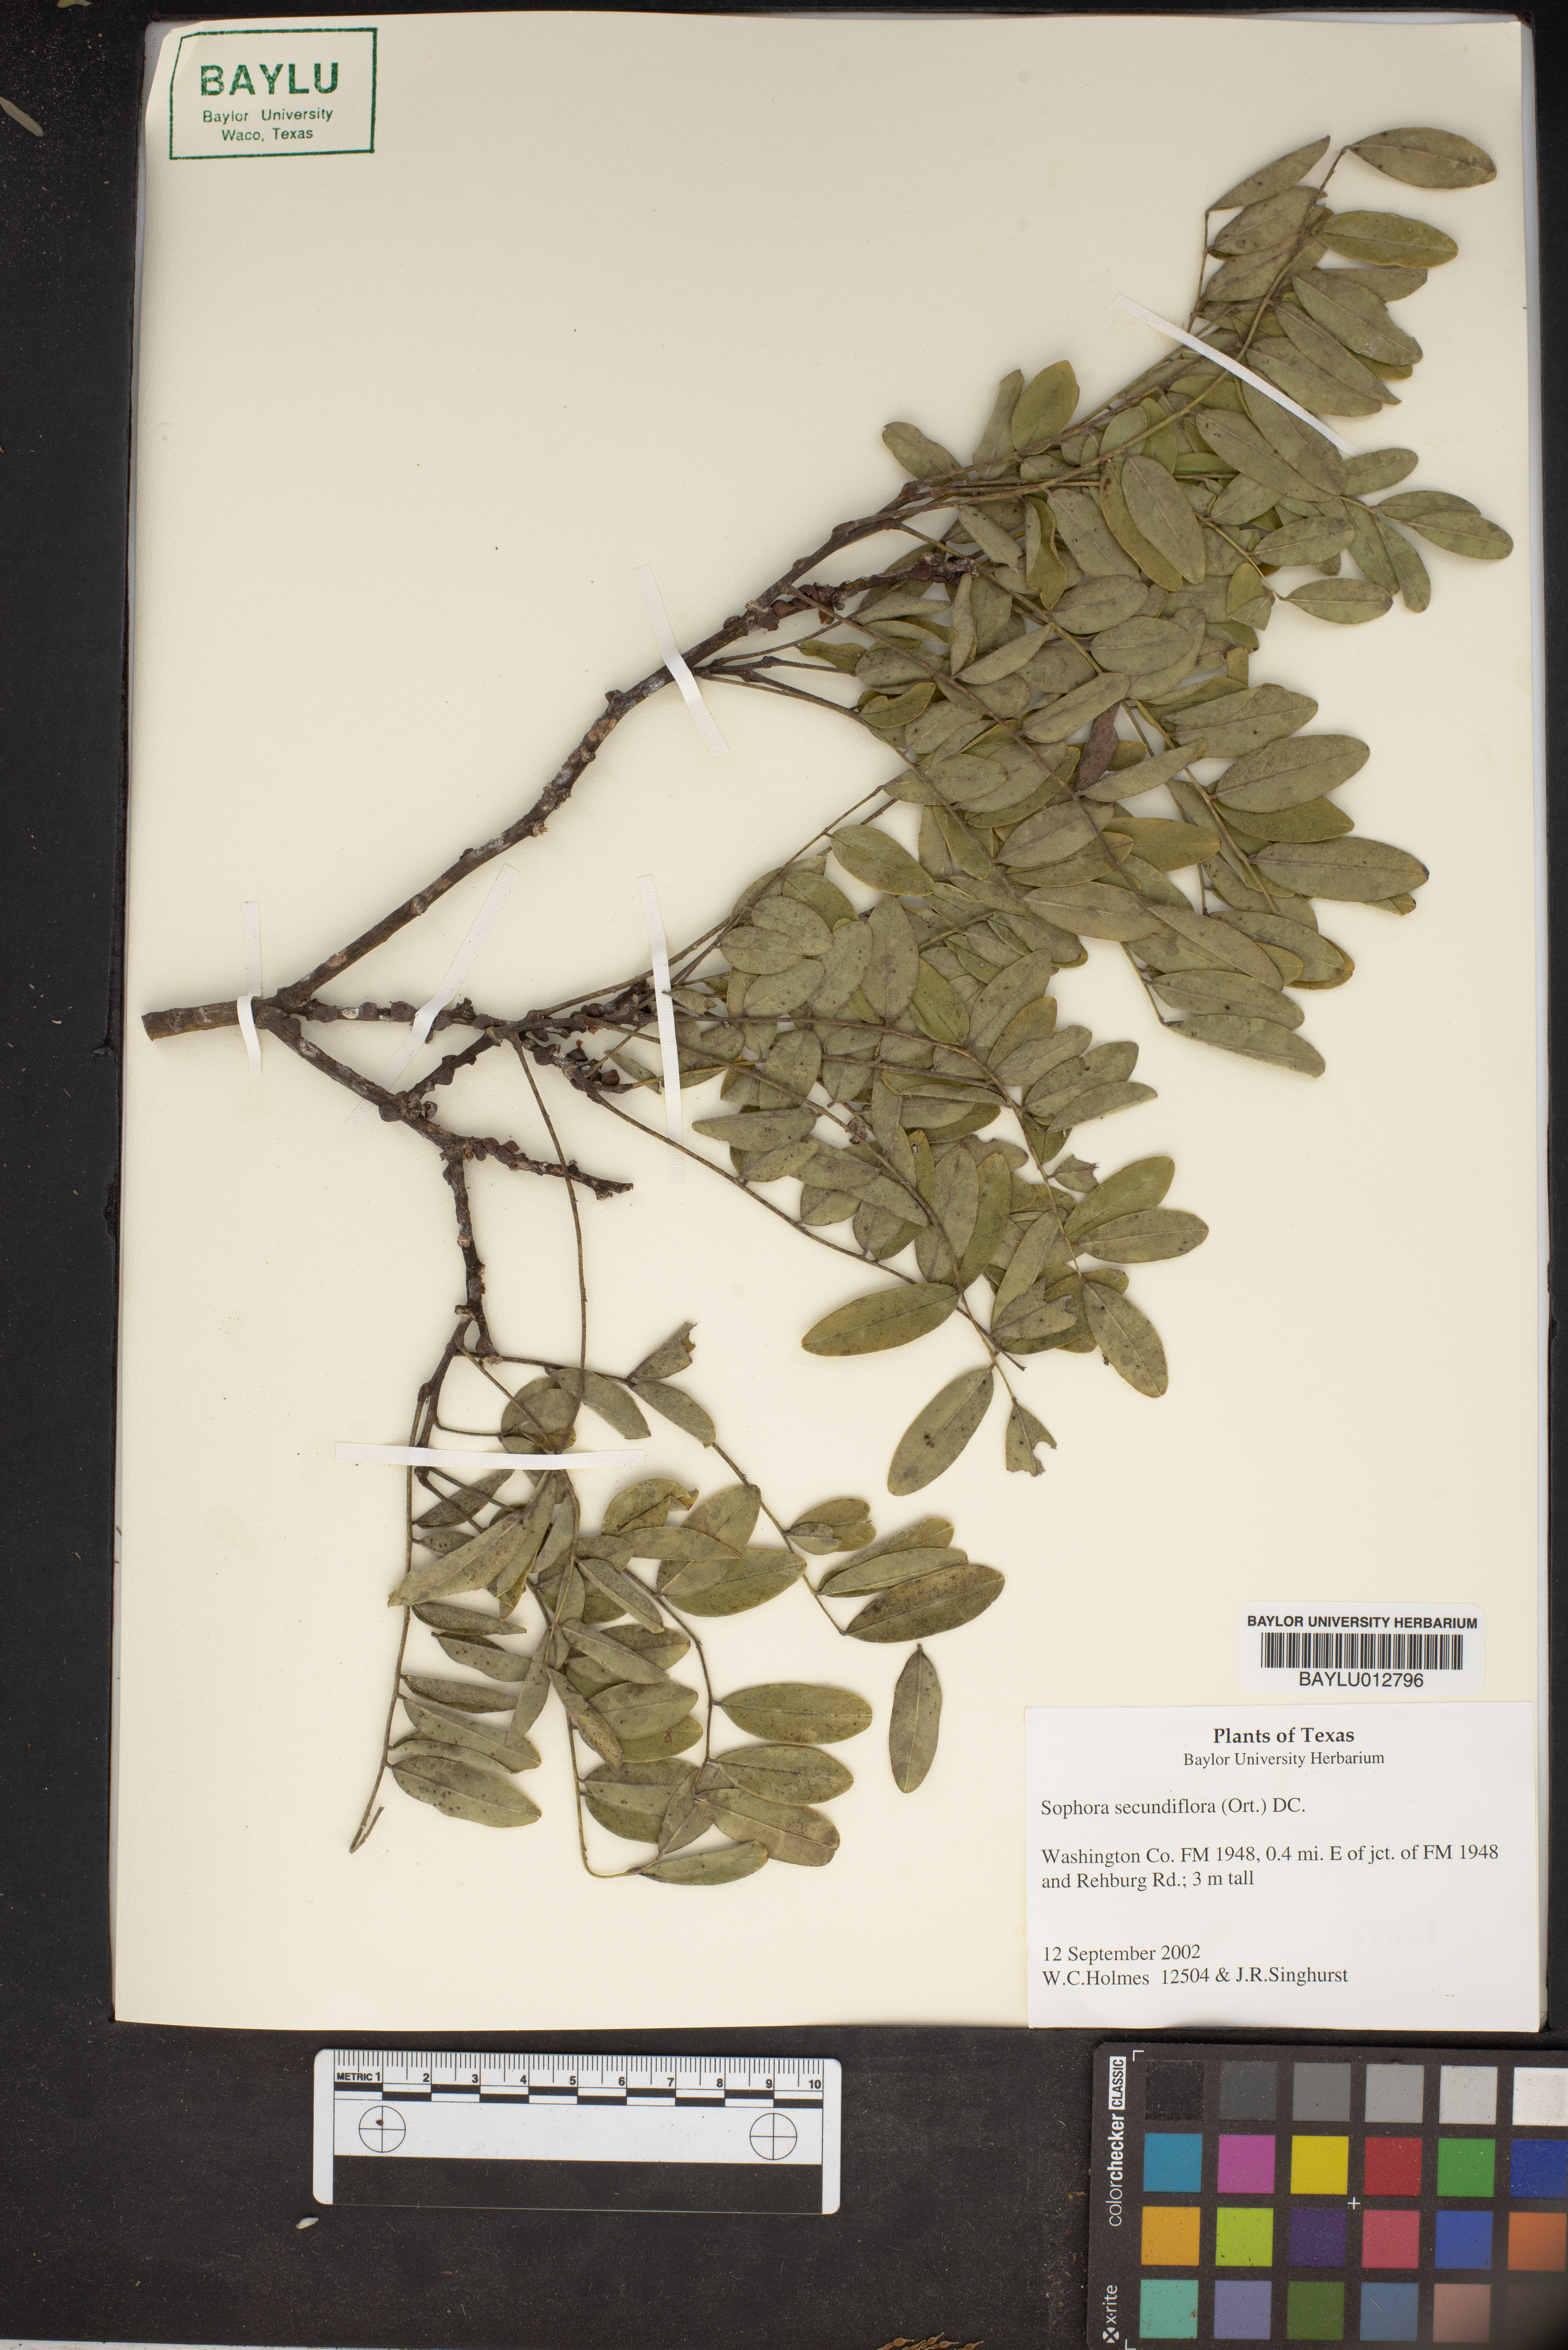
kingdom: Plantae
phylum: Tracheophyta
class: Magnoliopsida
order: Fabales
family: Fabaceae
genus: Dermatophyllum
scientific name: Dermatophyllum secundiflorum
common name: Texas-mountain-laurel
